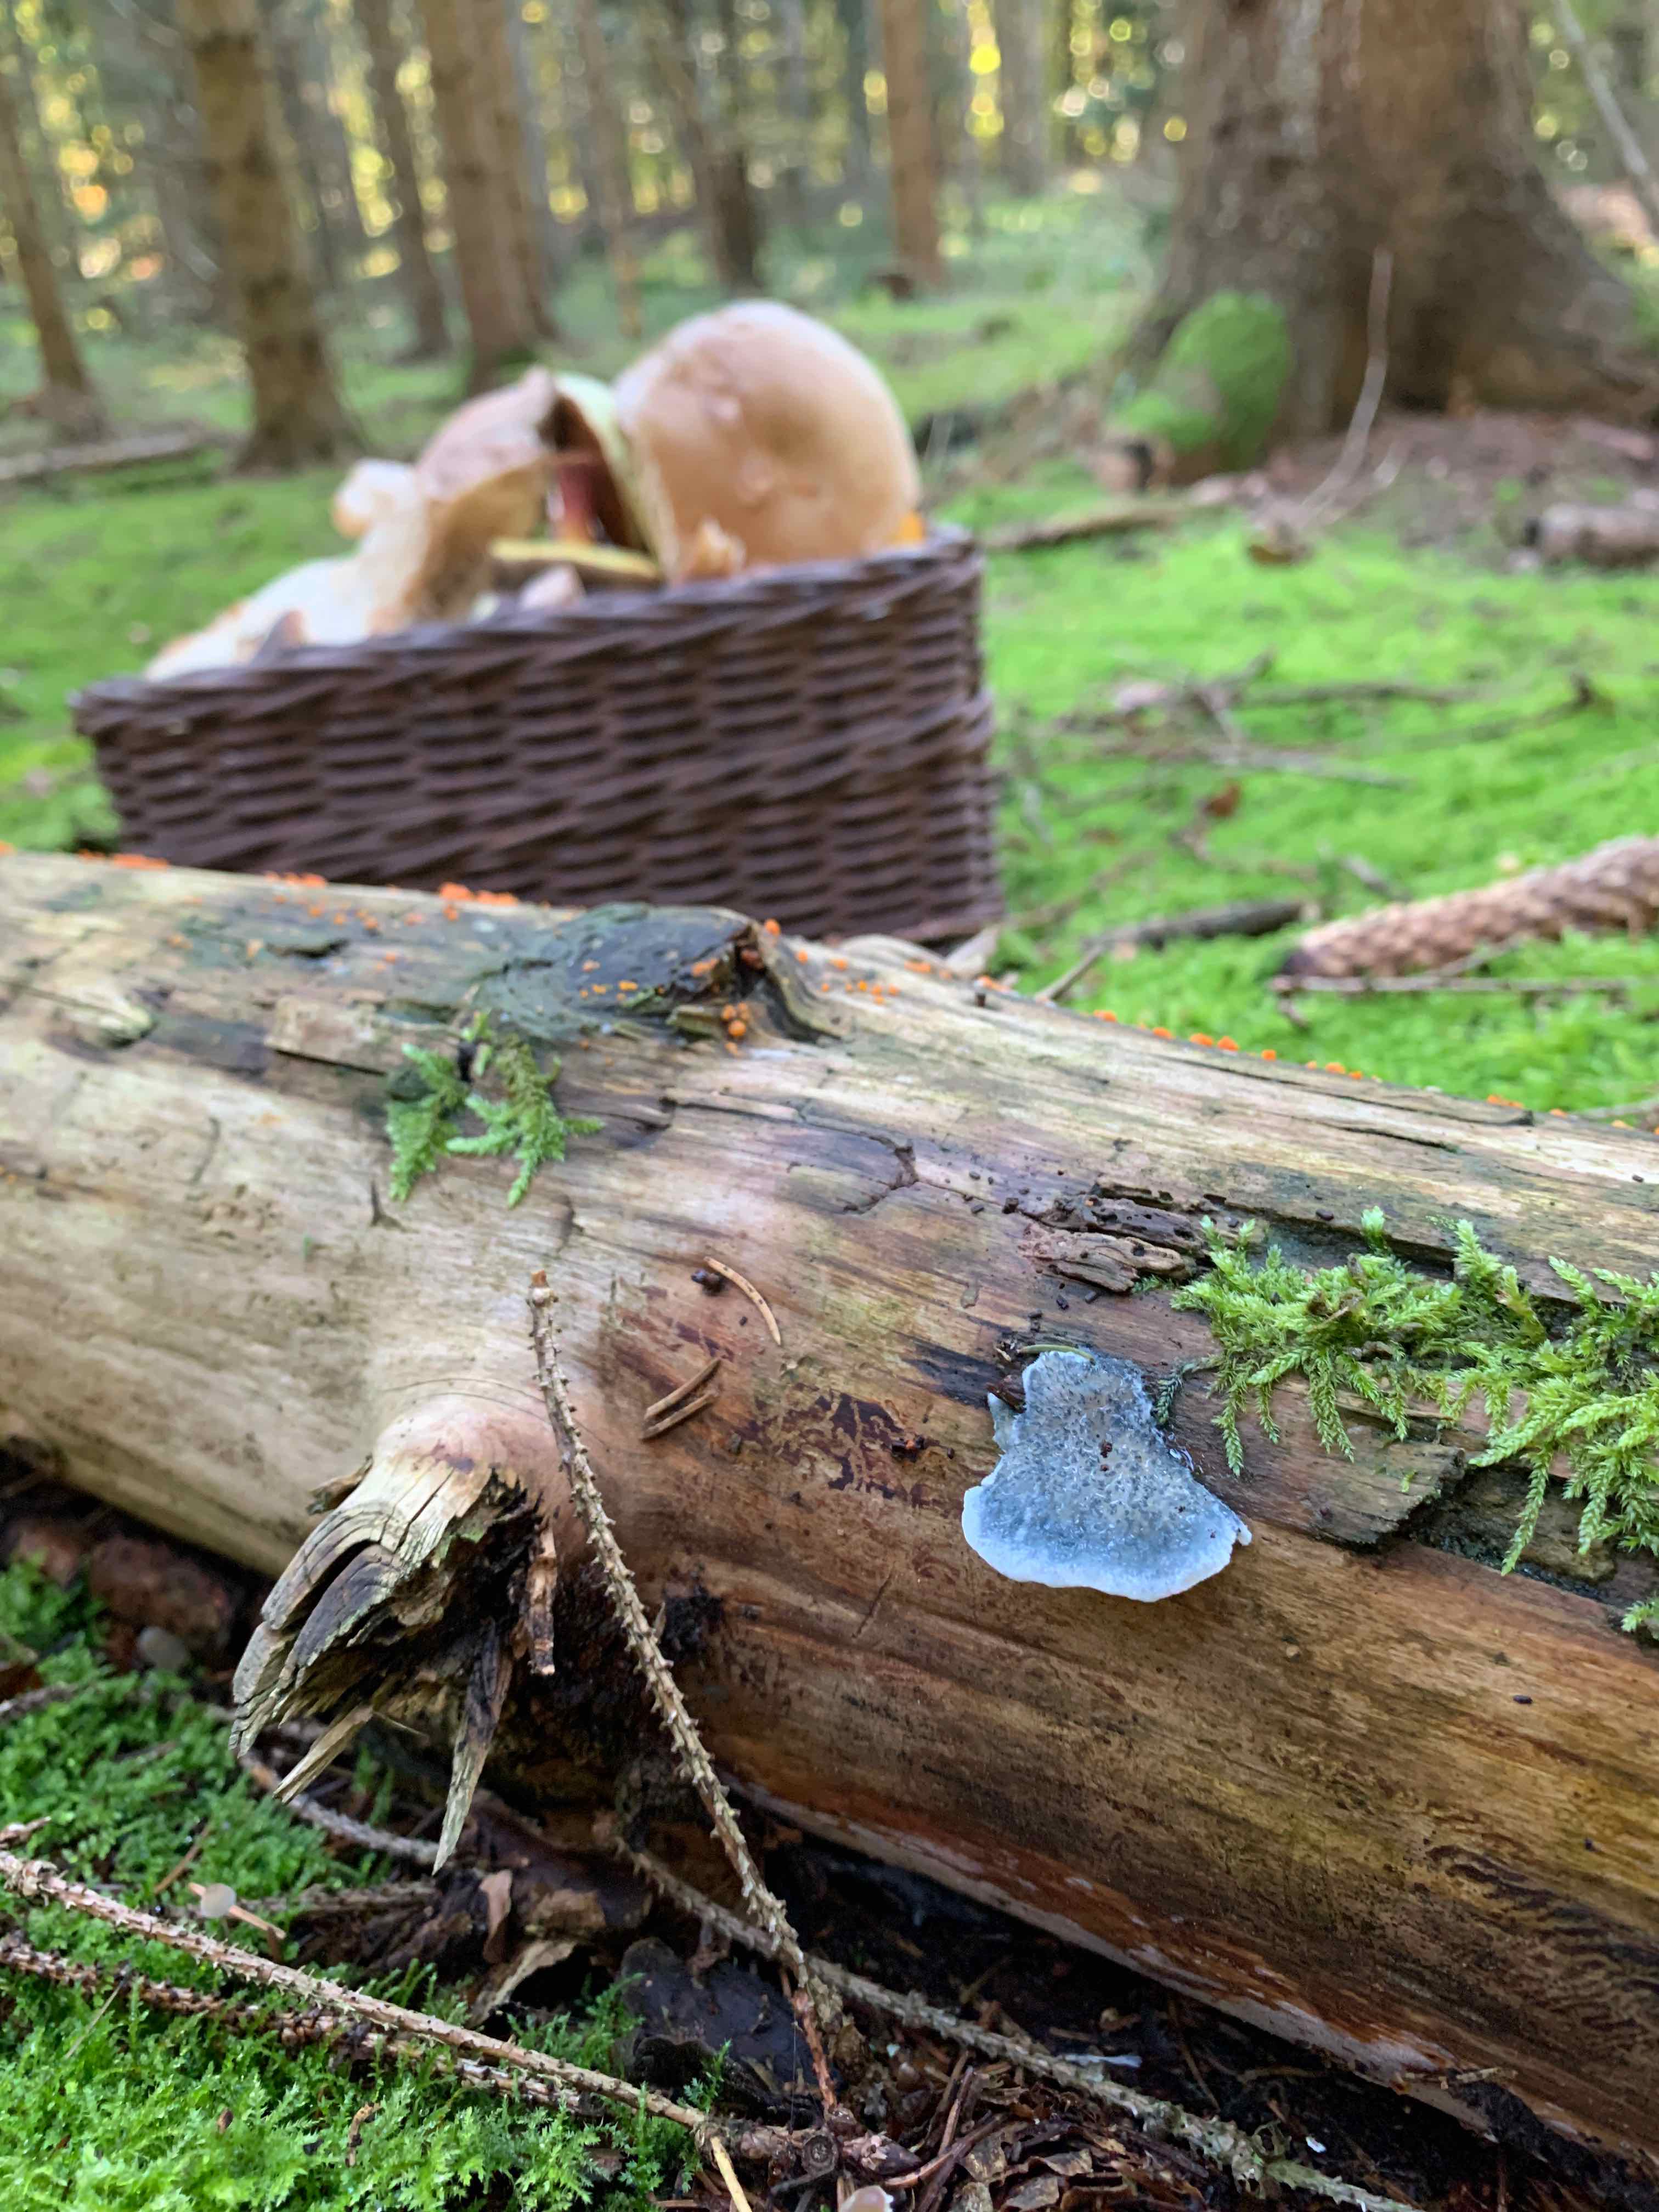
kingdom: Fungi
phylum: Basidiomycota
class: Agaricomycetes
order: Polyporales
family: Polyporaceae
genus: Cyanosporus
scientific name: Cyanosporus caesius
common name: blålig kødporesvamp
